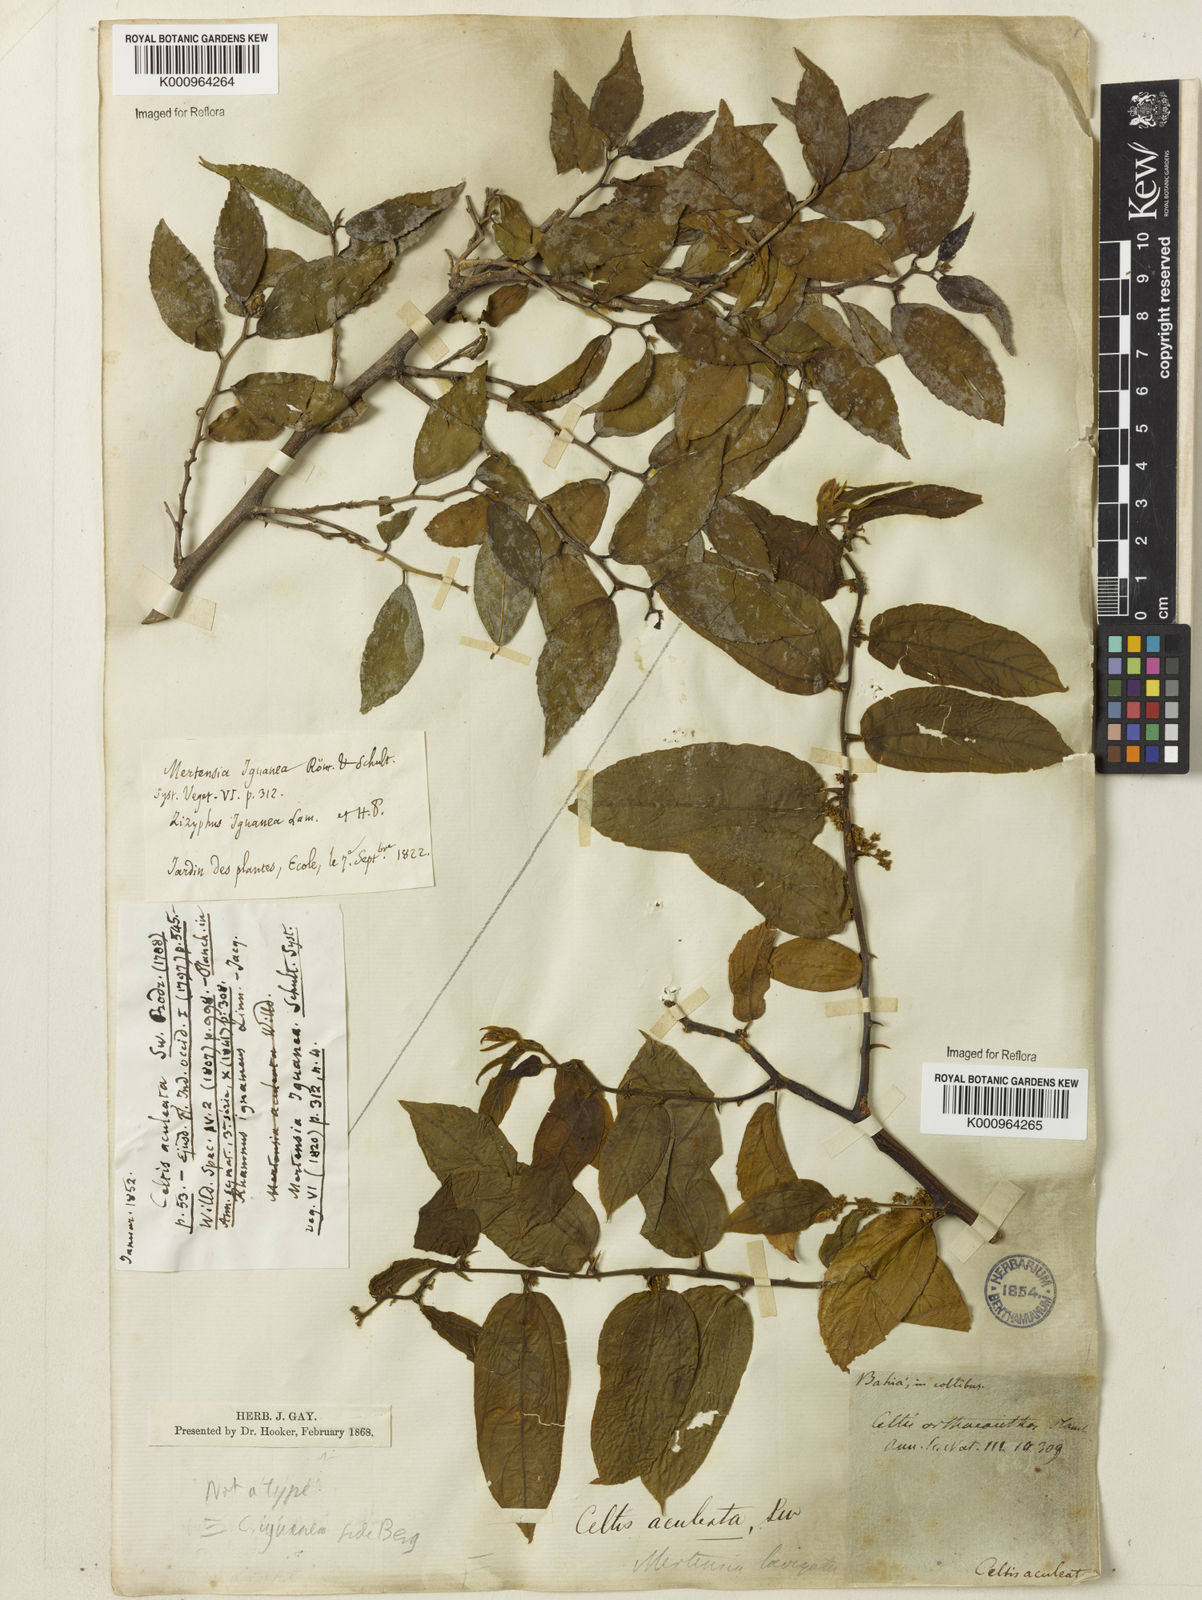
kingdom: Plantae
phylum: Tracheophyta
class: Magnoliopsida
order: Rosales
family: Cannabaceae
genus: Celtis
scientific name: Celtis iguanaea
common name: Iguana hackberry
